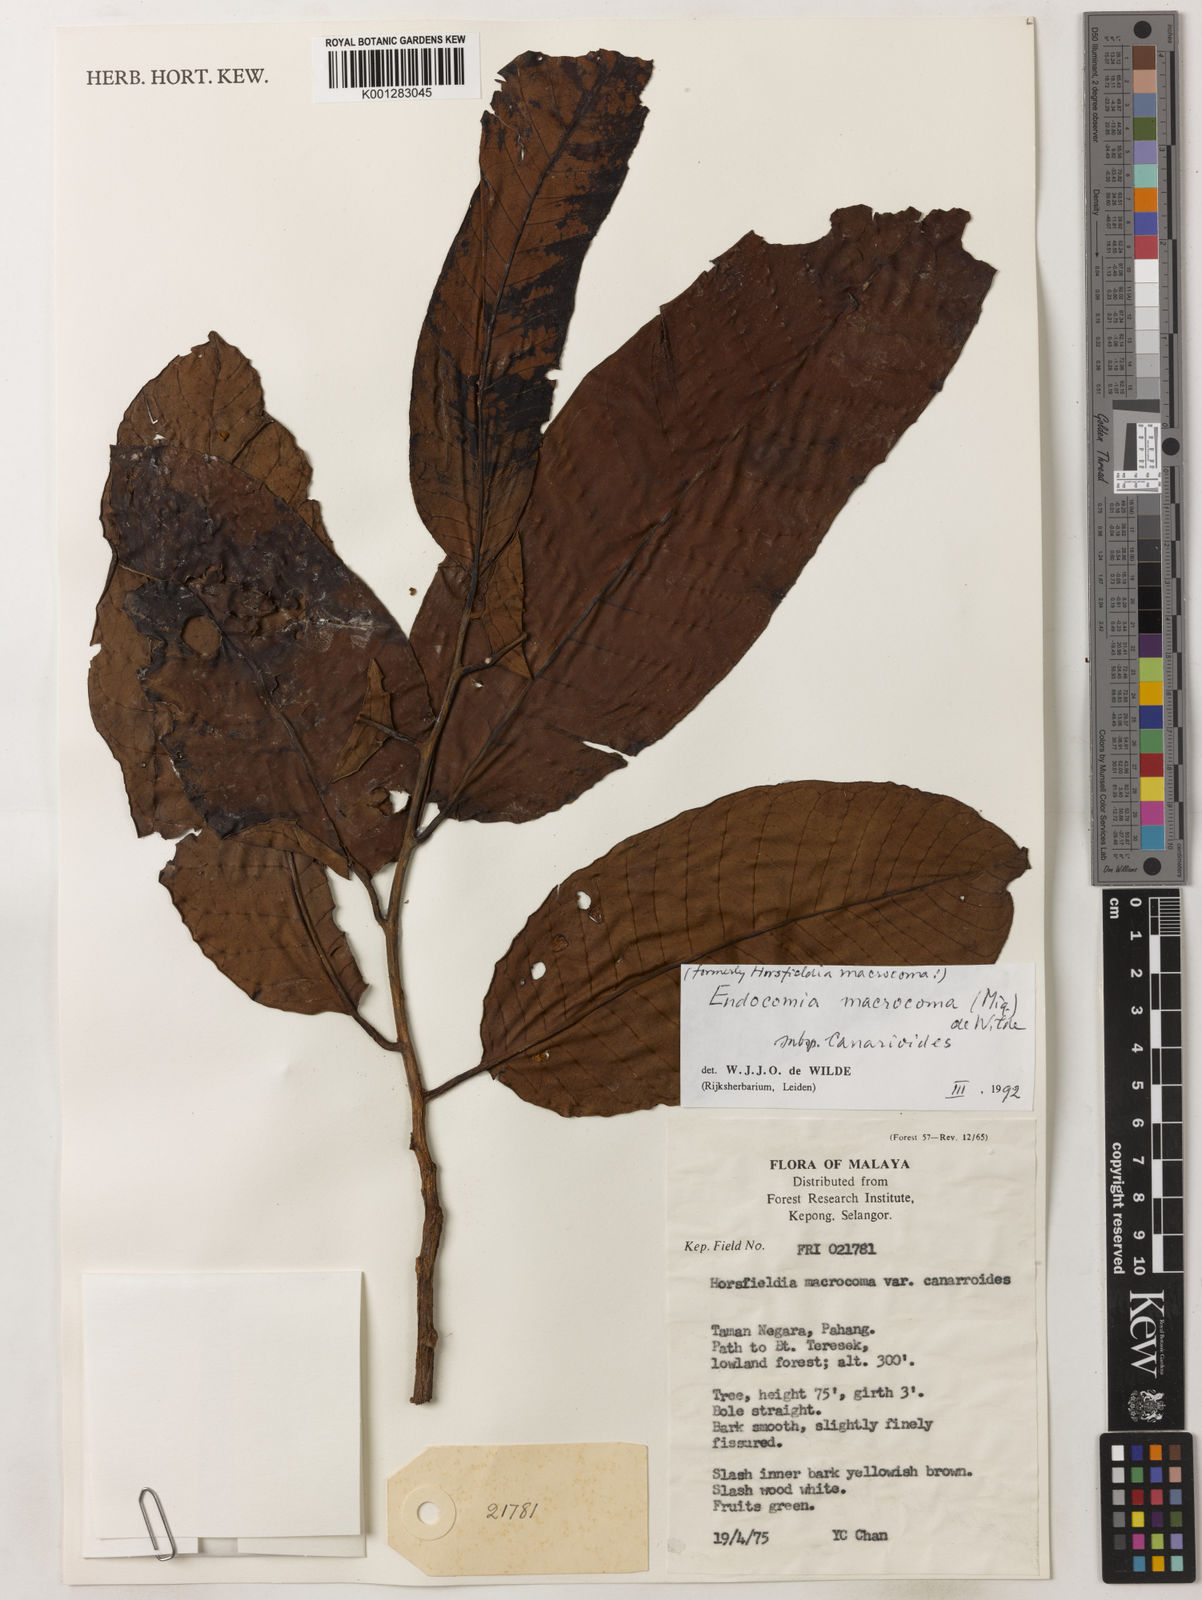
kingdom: Plantae
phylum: Tracheophyta
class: Magnoliopsida
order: Magnoliales
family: Myristicaceae
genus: Endocomia
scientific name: Endocomia canarioides
